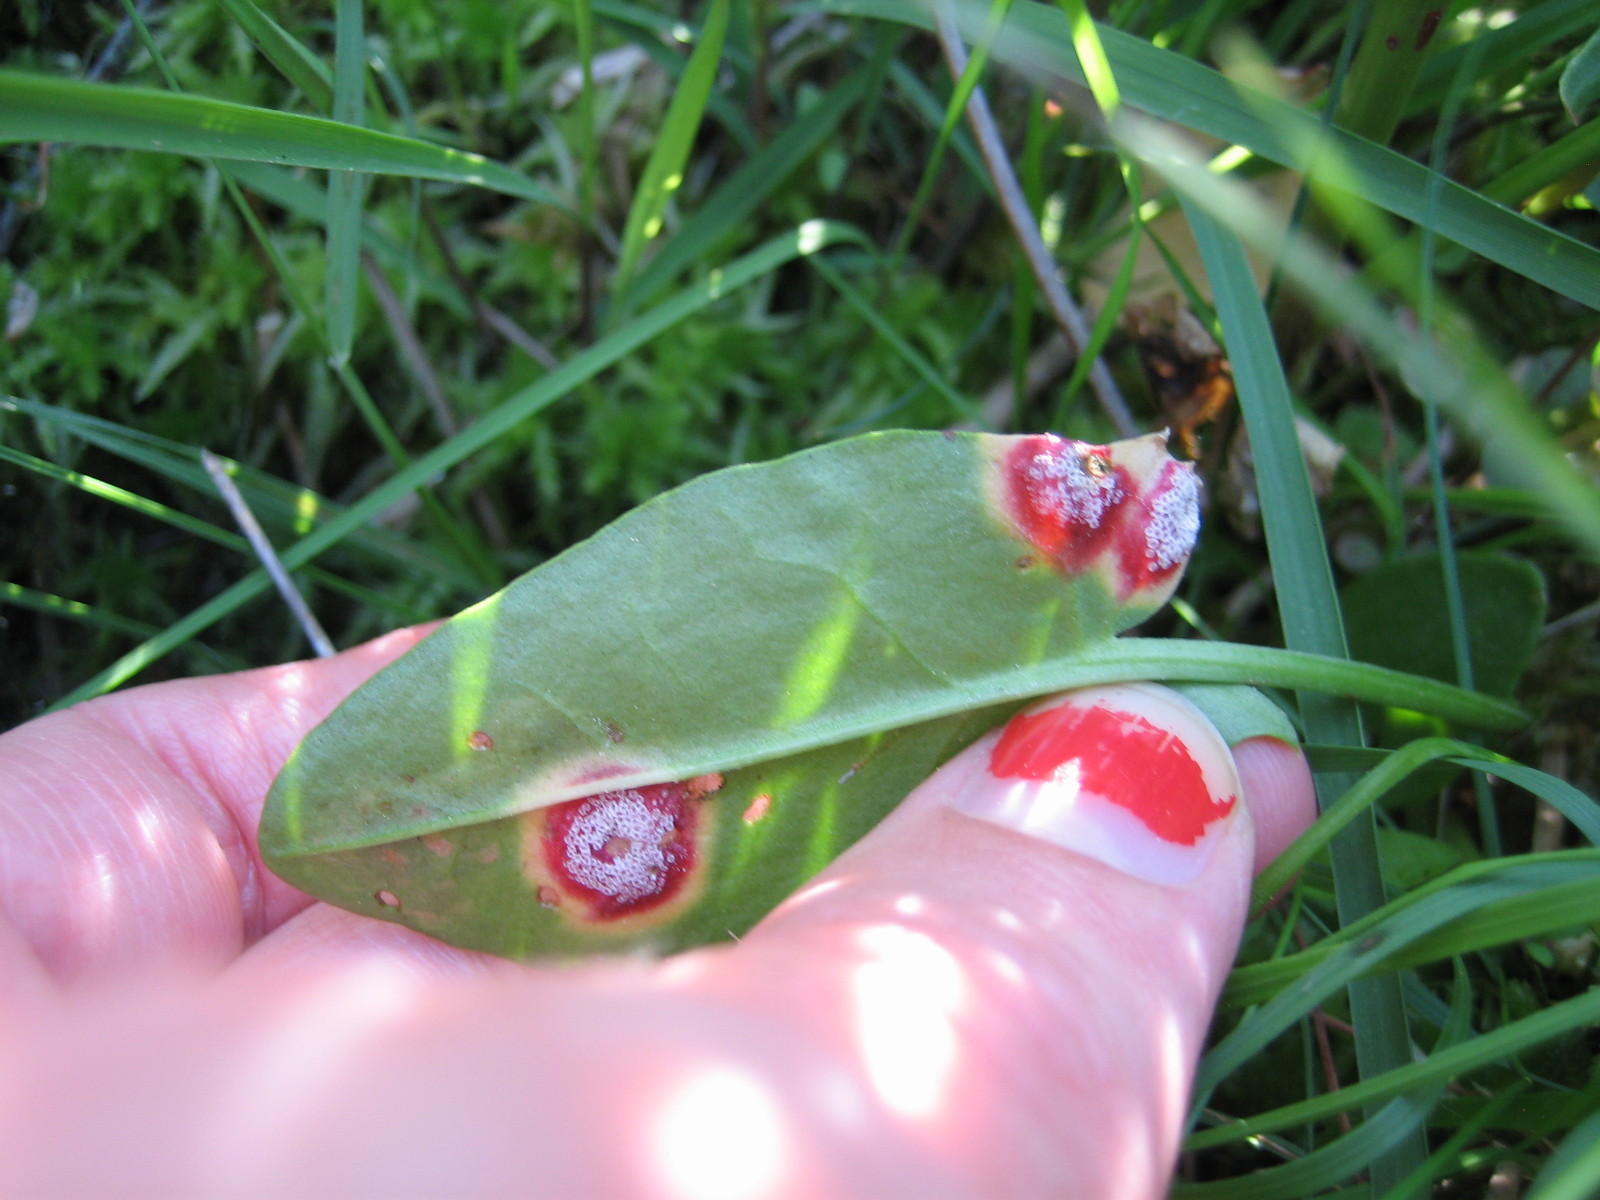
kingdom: Fungi
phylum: Basidiomycota
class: Pucciniomycetes
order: Pucciniales
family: Pucciniaceae
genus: Puccinia
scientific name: Puccinia phragmitis
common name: tagrør-tvecellerust
